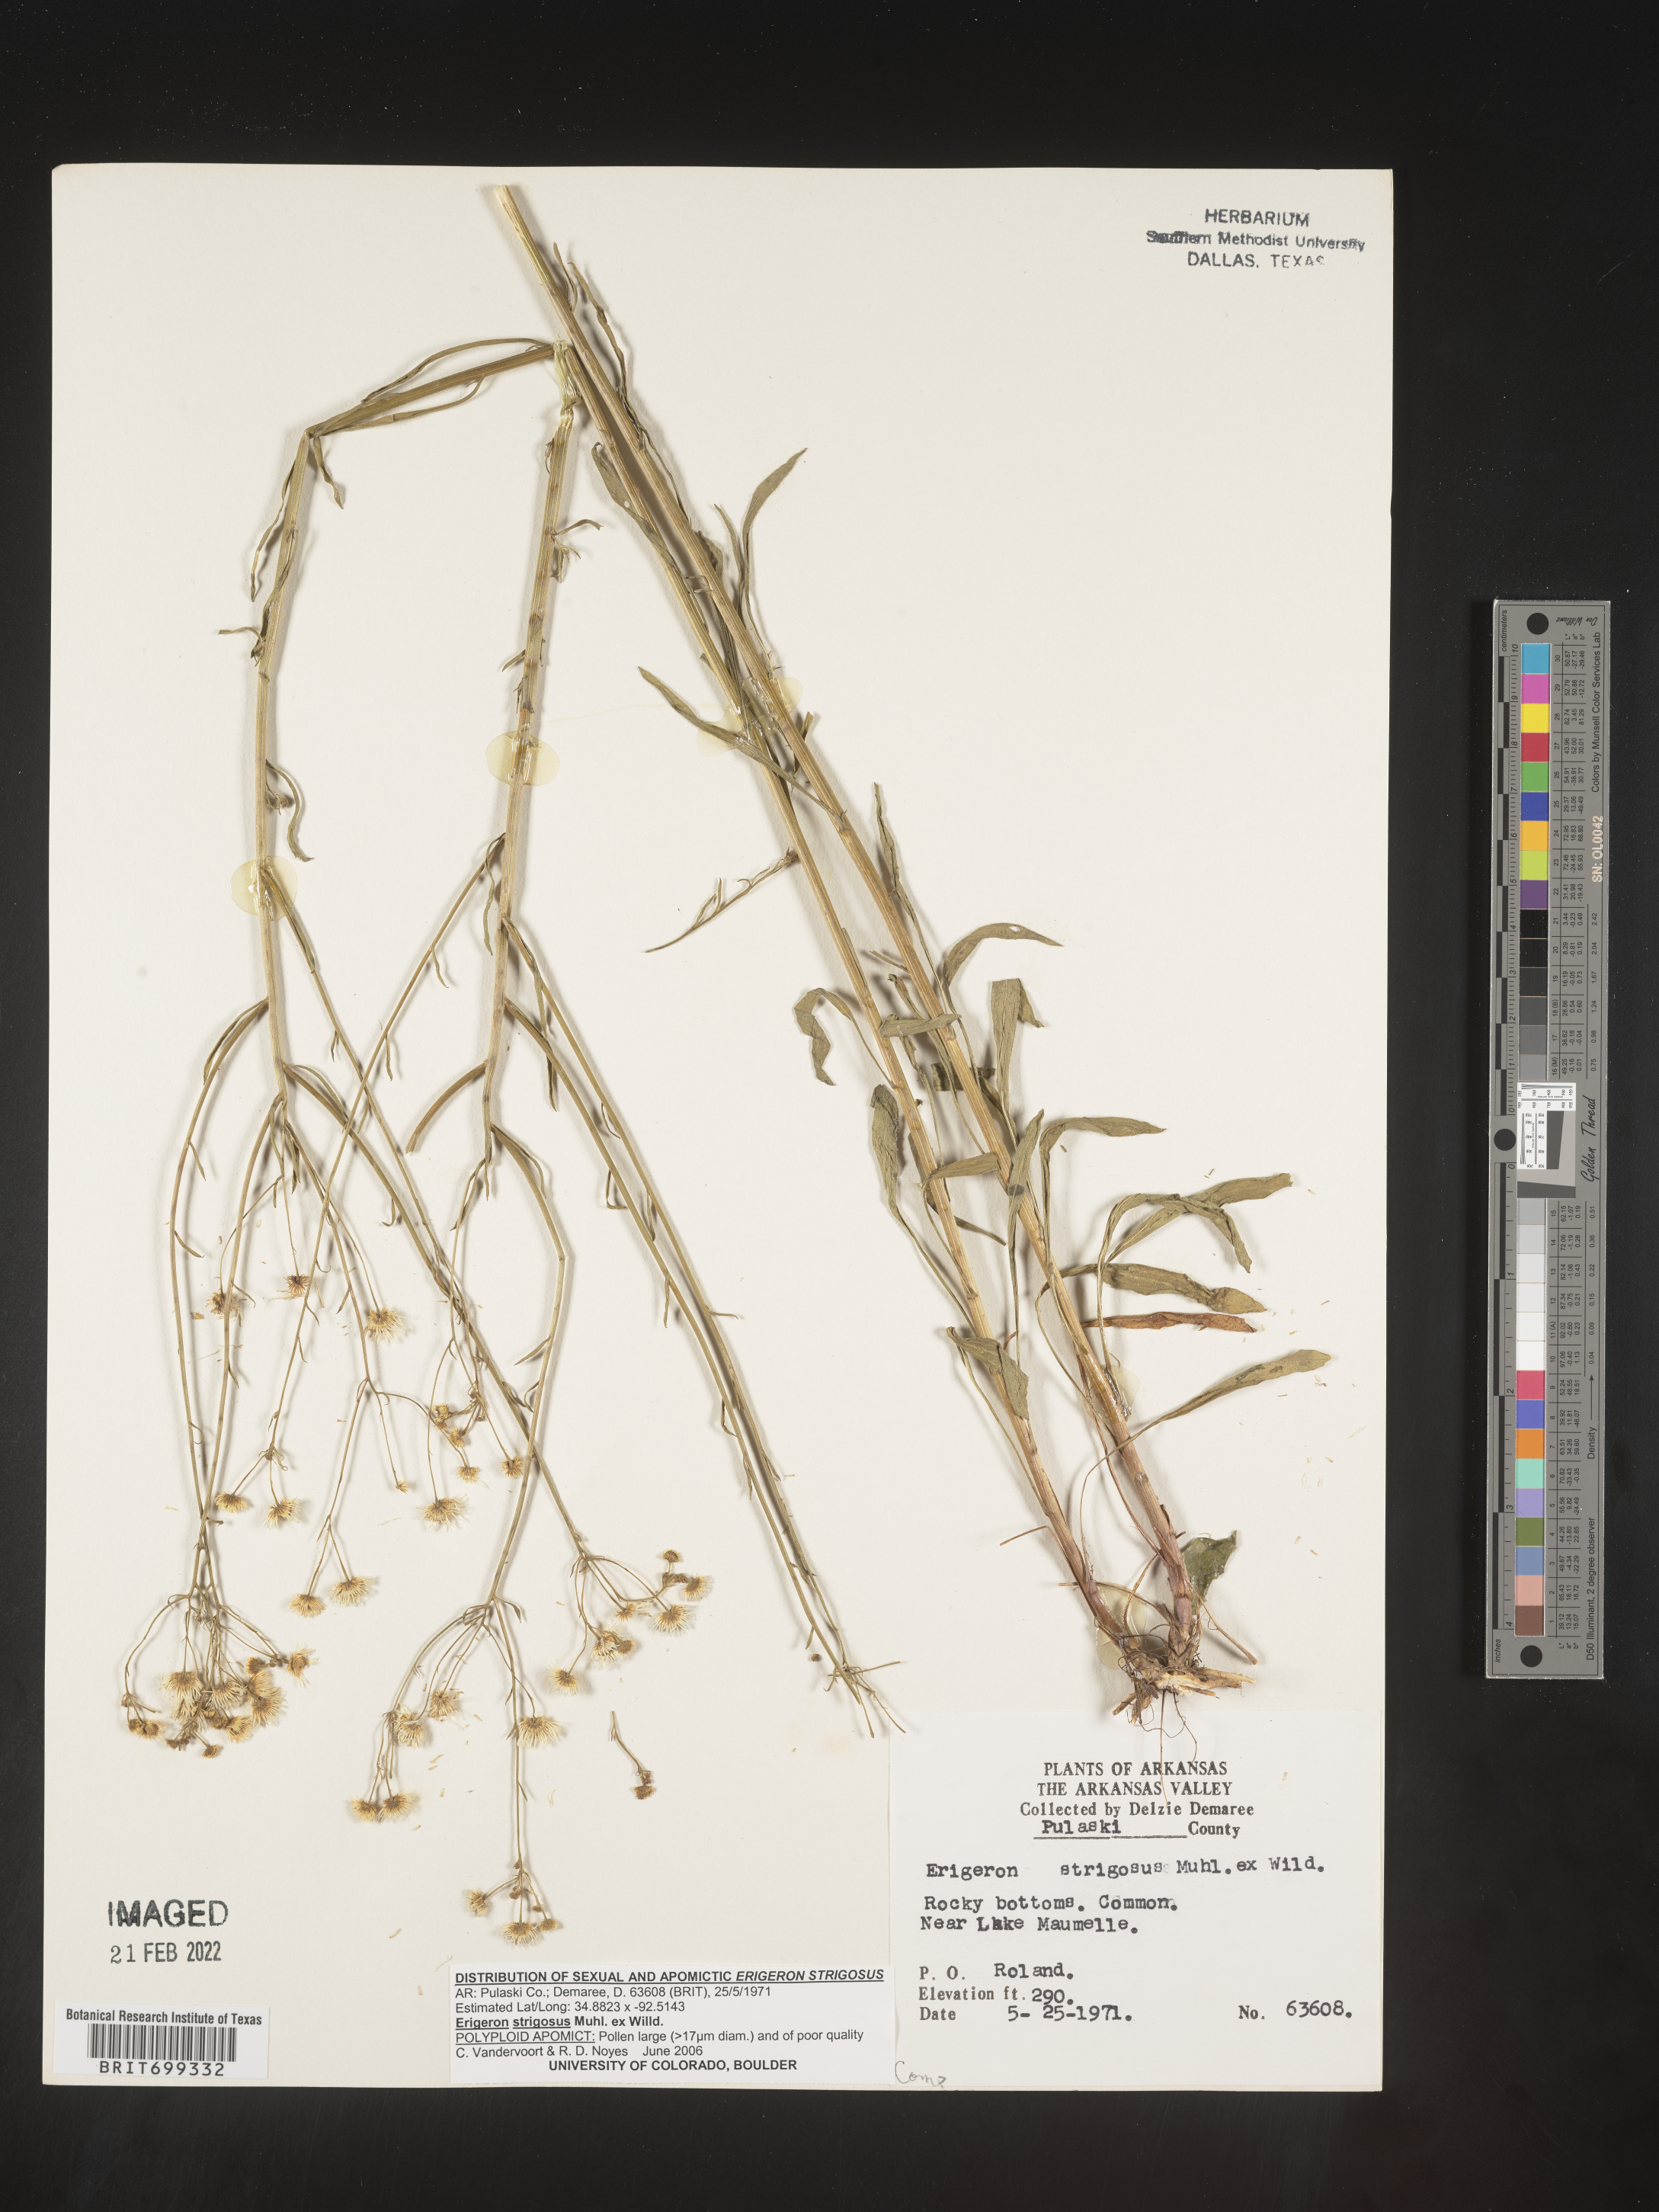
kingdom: Plantae
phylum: Tracheophyta
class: Magnoliopsida
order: Asterales
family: Asteraceae
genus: Erigeron
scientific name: Erigeron strigosus
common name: Common eastern fleabane
